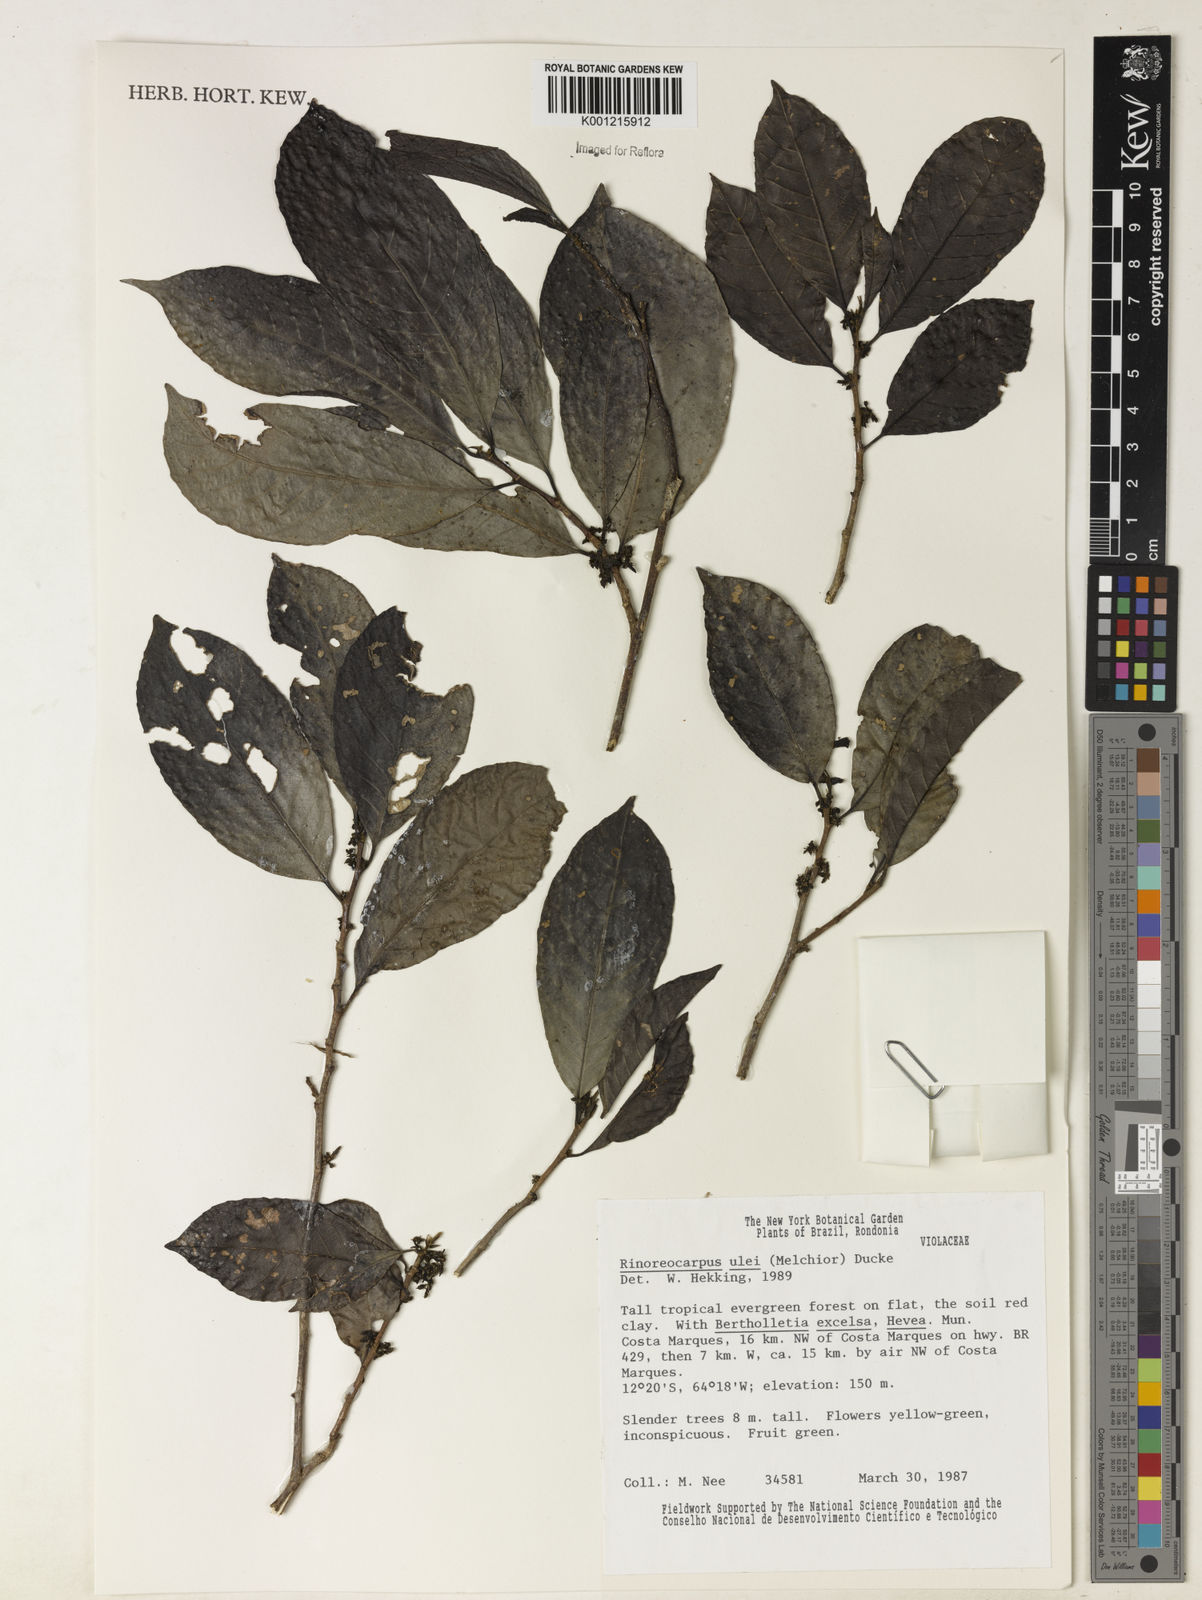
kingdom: Plantae
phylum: Tracheophyta
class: Magnoliopsida
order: Malpighiales
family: Violaceae
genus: Rinorea
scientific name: Rinorea
